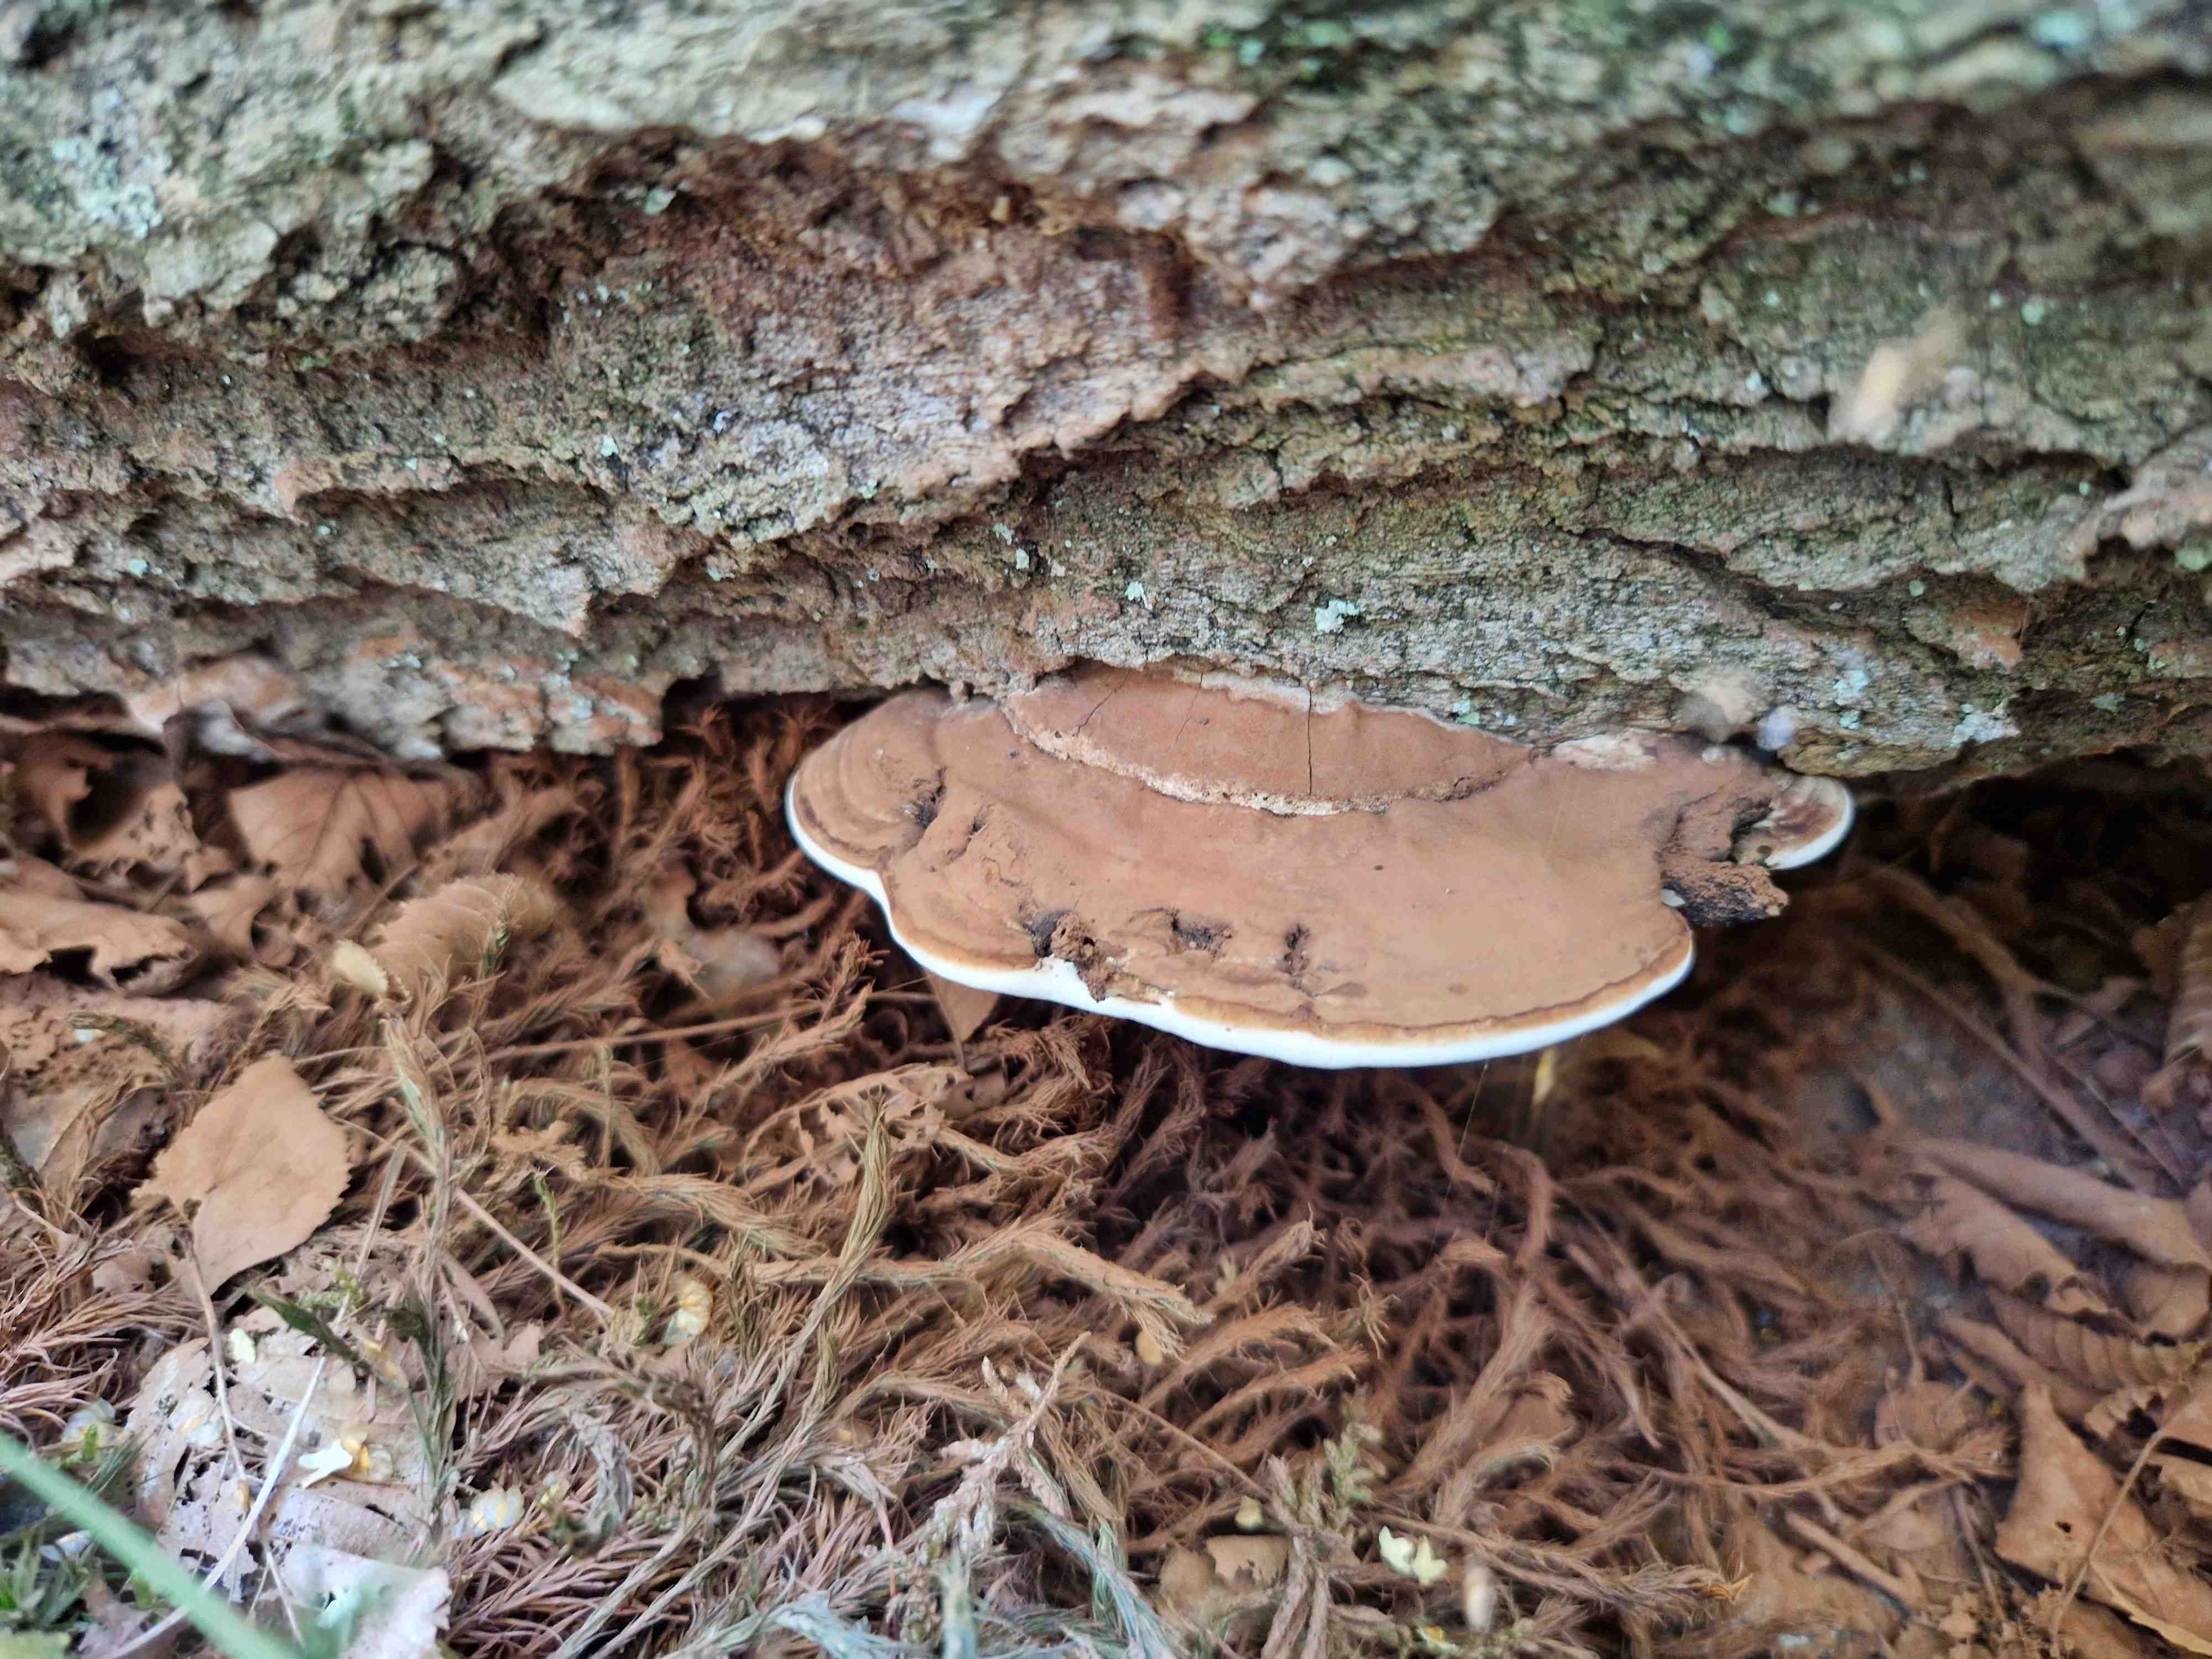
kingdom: Fungi
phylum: Basidiomycota
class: Agaricomycetes
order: Polyporales
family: Polyporaceae
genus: Ganoderma
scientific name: Ganoderma applanatum
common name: flad lakporesvamp
